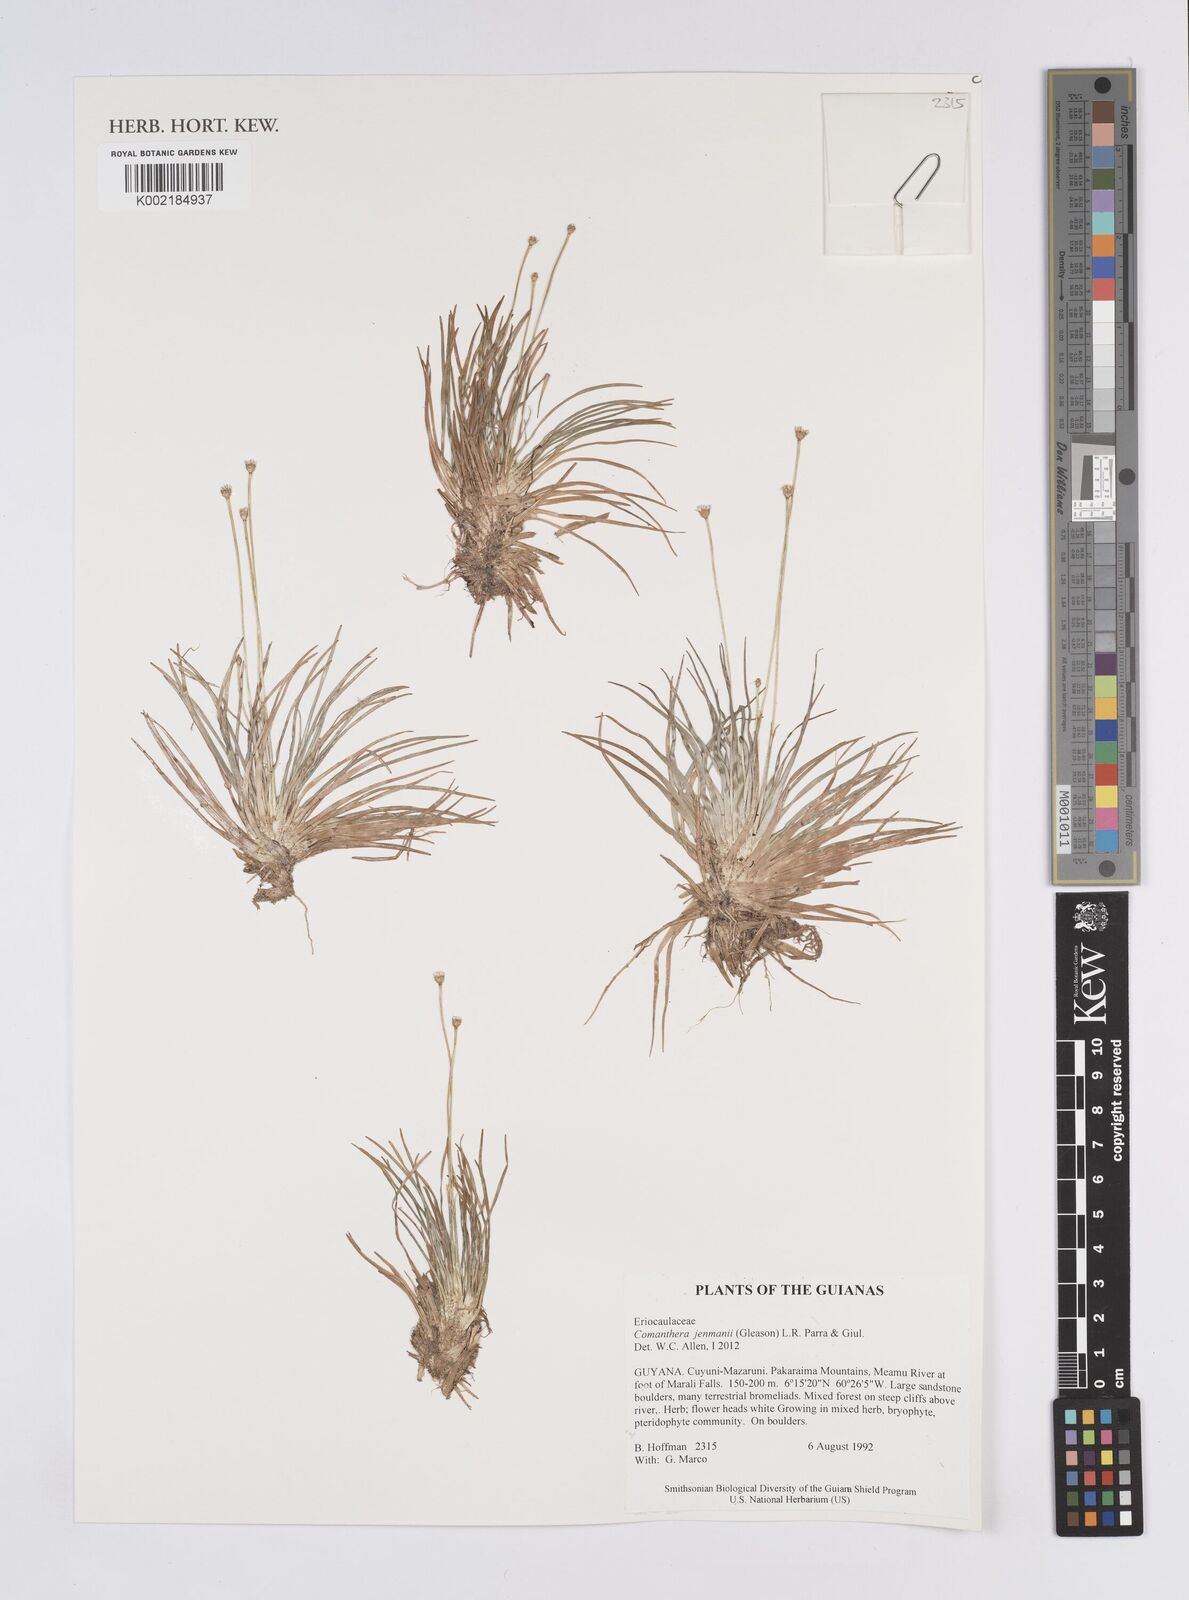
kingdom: Plantae
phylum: Tracheophyta
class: Liliopsida
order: Poales
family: Eriocaulaceae
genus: Comanthera
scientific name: Comanthera jenmanii
